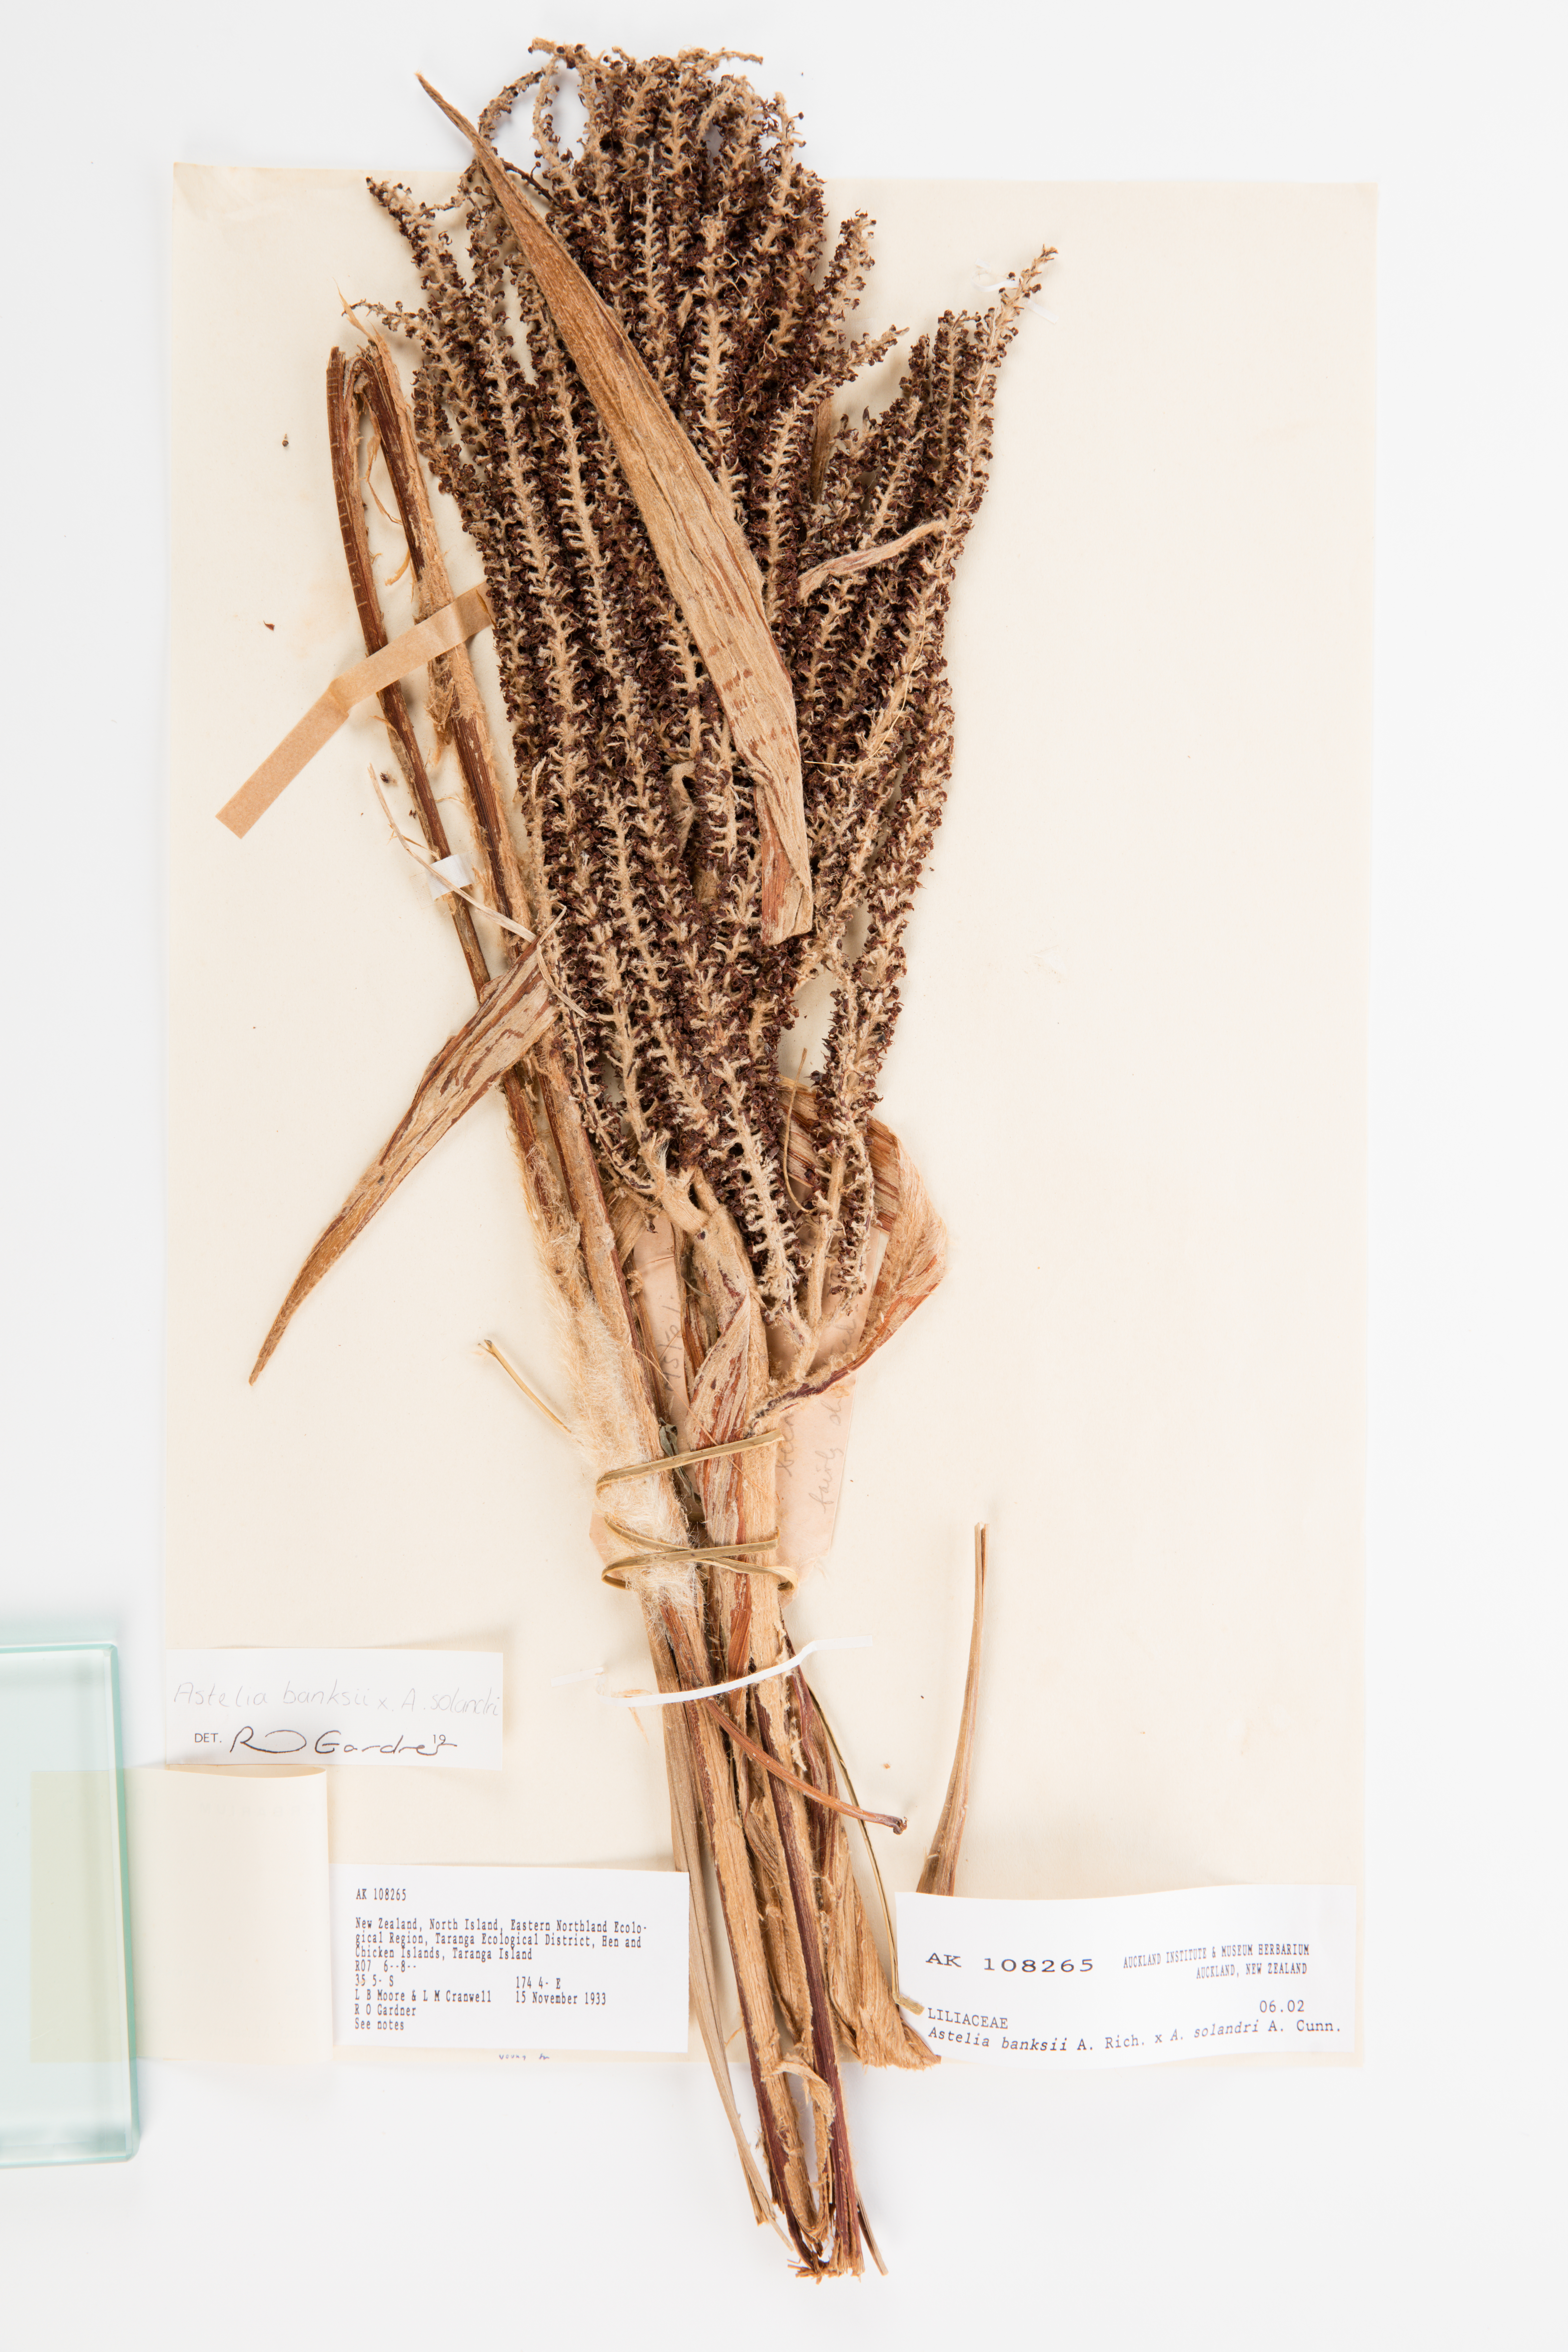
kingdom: Plantae
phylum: Tracheophyta
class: Liliopsida
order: Asparagales
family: Asteliaceae
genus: Astelia
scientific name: Astelia
